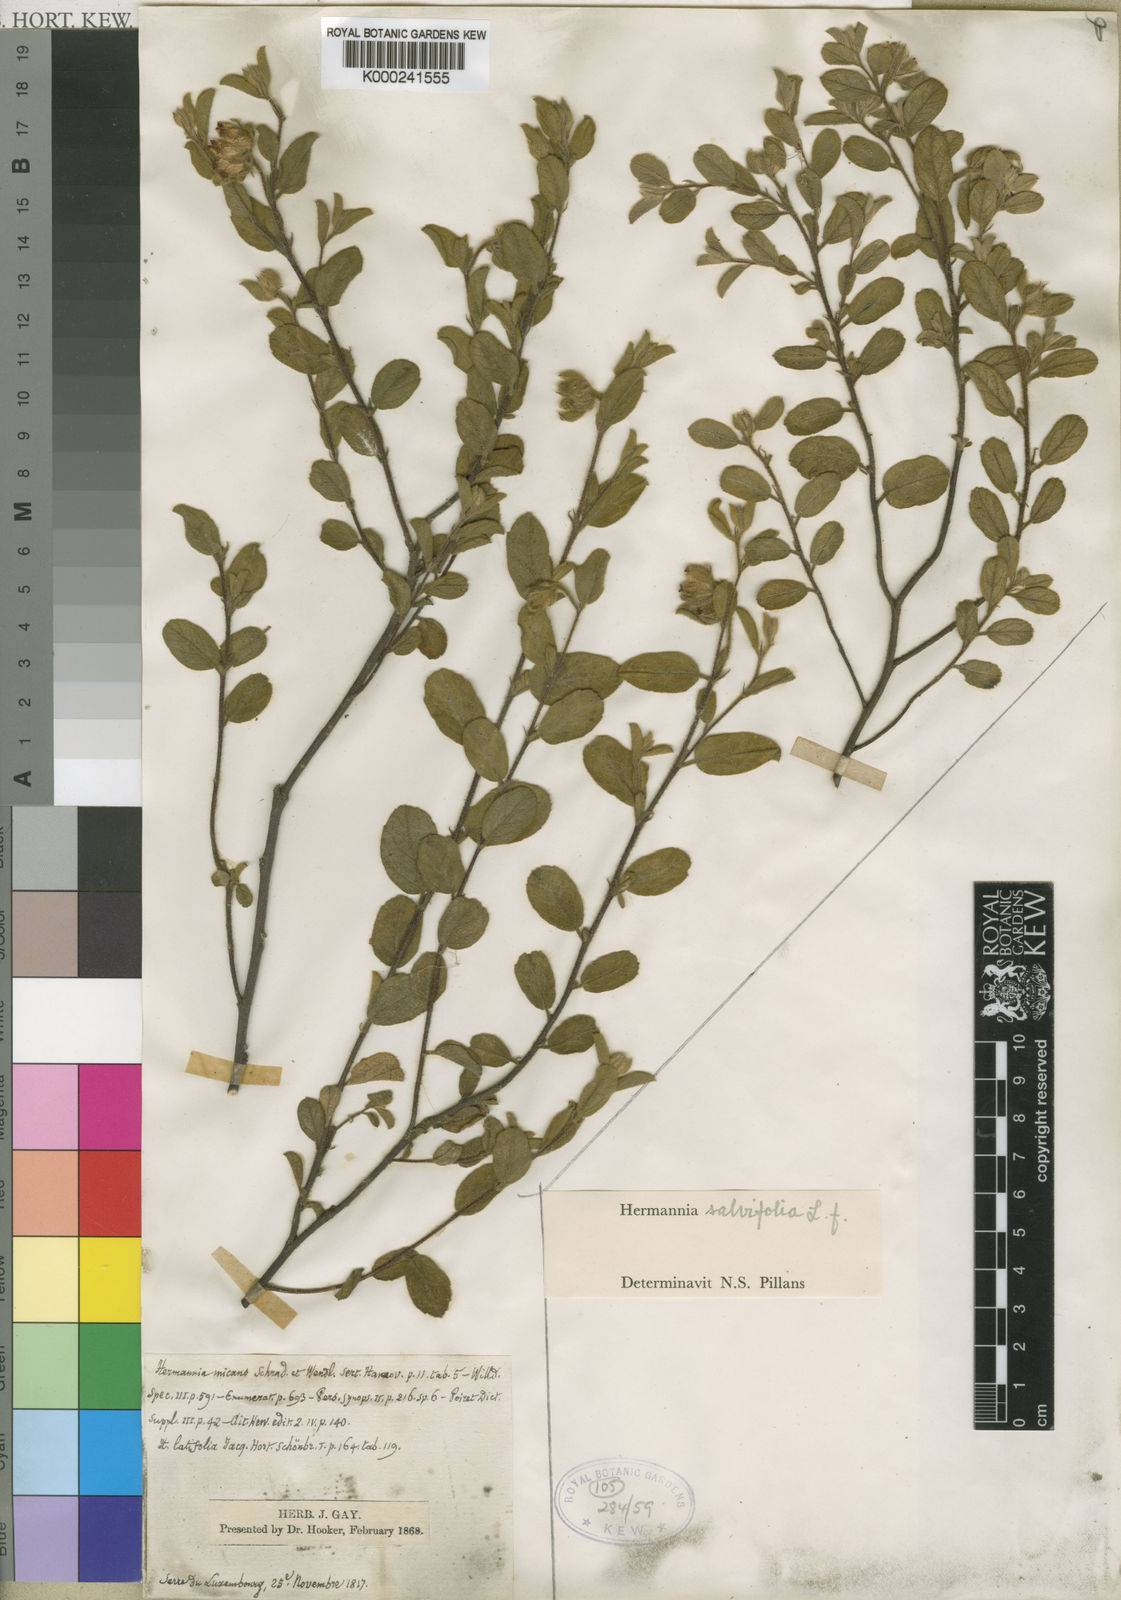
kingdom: Plantae
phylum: Tracheophyta
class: Magnoliopsida
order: Malvales
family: Malvaceae
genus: Hermannia
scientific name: Hermannia salviifolia
